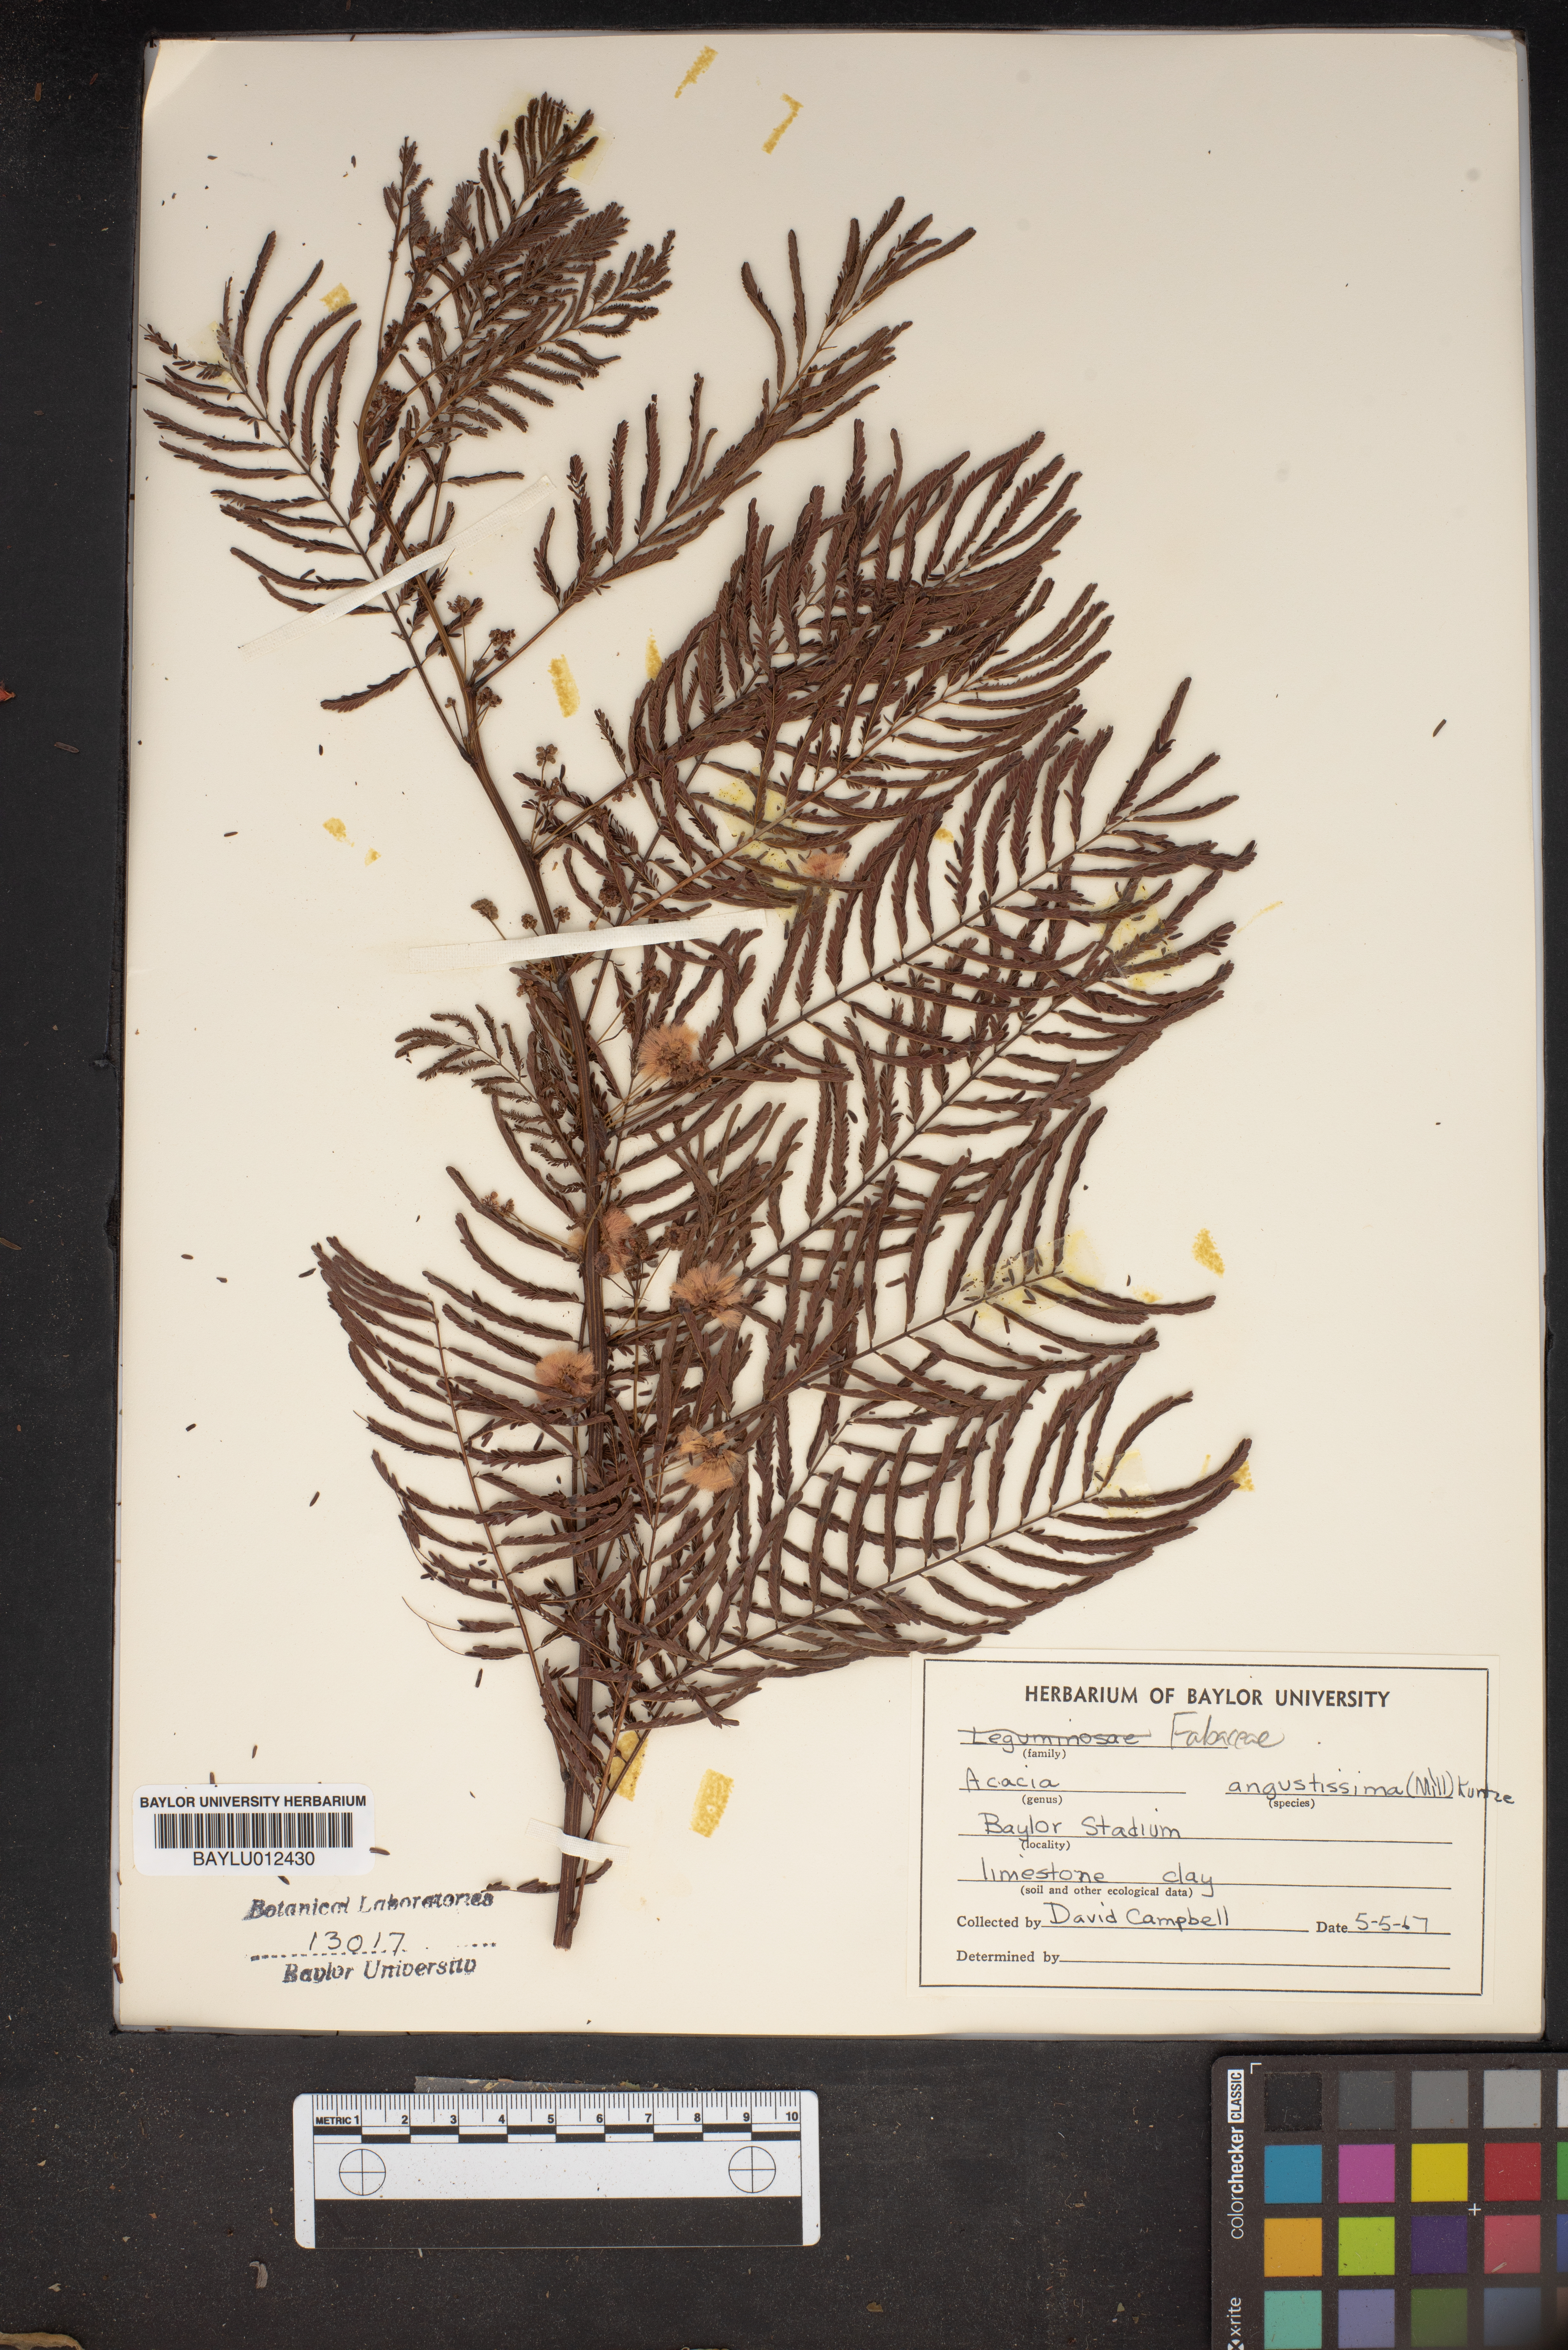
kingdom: Plantae
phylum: Tracheophyta
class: Magnoliopsida
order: Fabales
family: Fabaceae
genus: Acaciella
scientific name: Acaciella angustissima
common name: Prairie acacia
